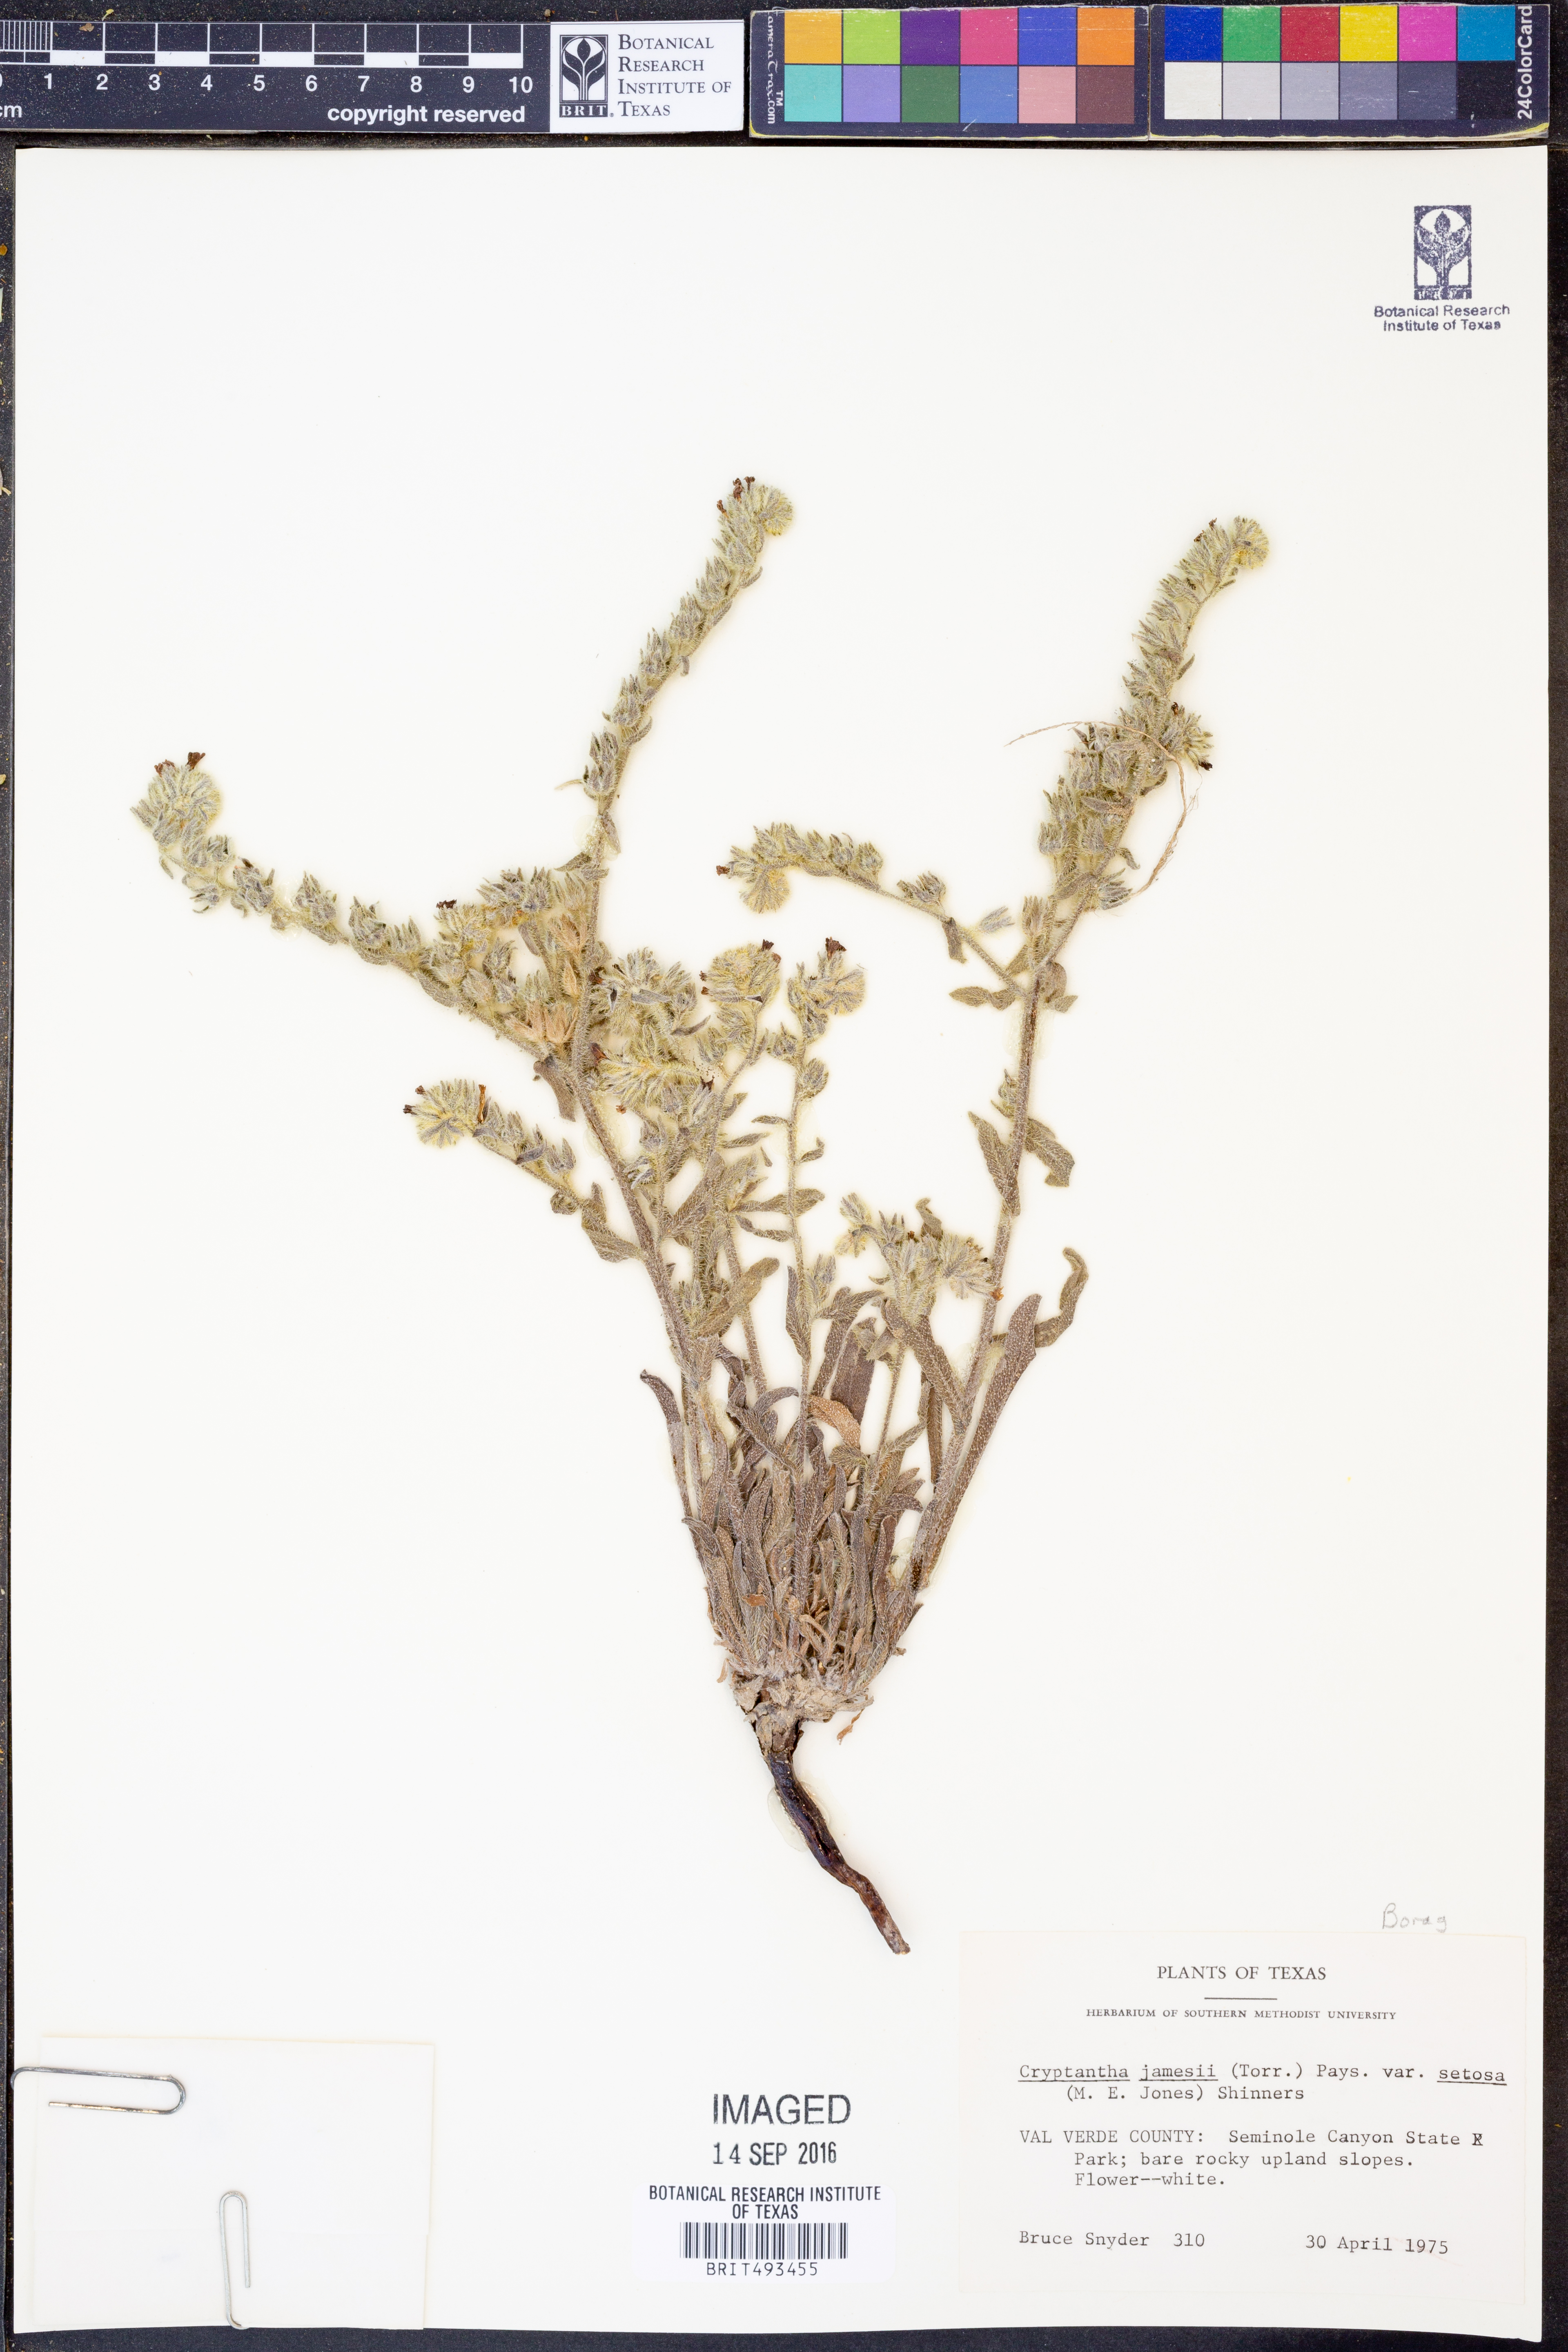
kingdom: Plantae
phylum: Tracheophyta
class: Magnoliopsida
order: Boraginales
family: Boraginaceae
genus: Oreocarya
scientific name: Oreocarya suffruticosa
